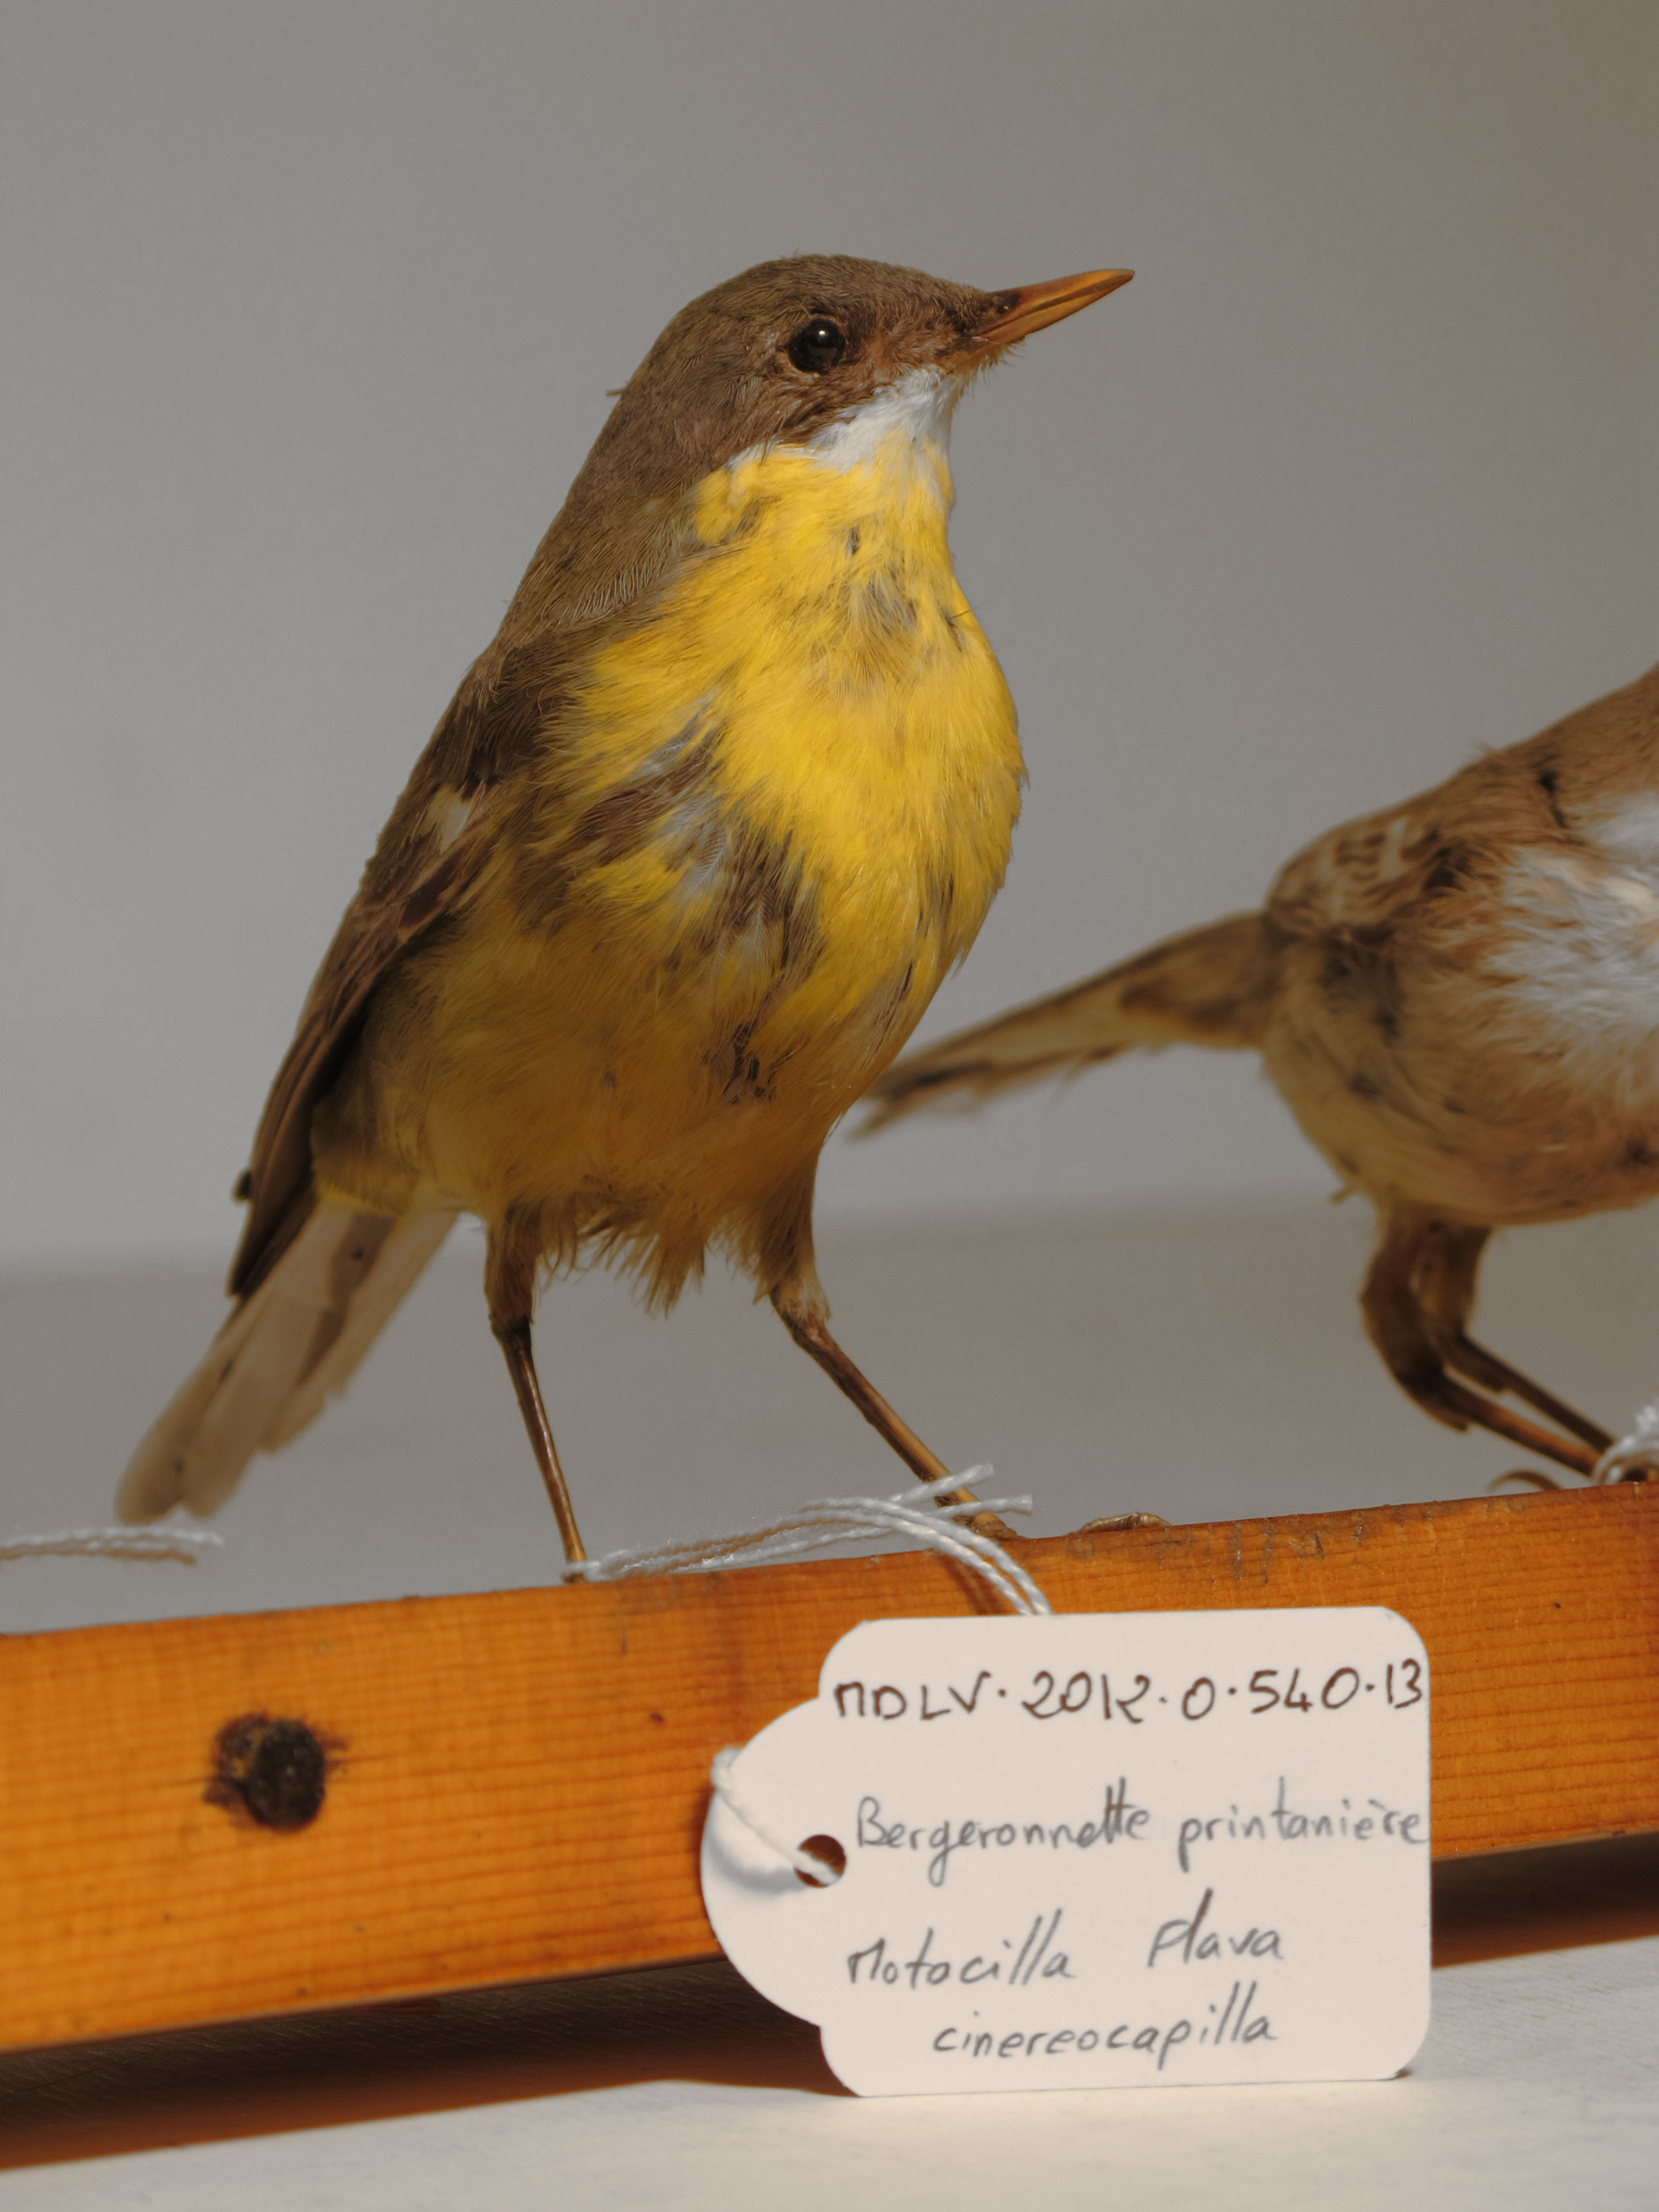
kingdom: Animalia
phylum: Chordata
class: Aves
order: Passeriformes
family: Motacillidae
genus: Motacilla
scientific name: Motacilla flava
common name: Ashy-headed Wagtail
